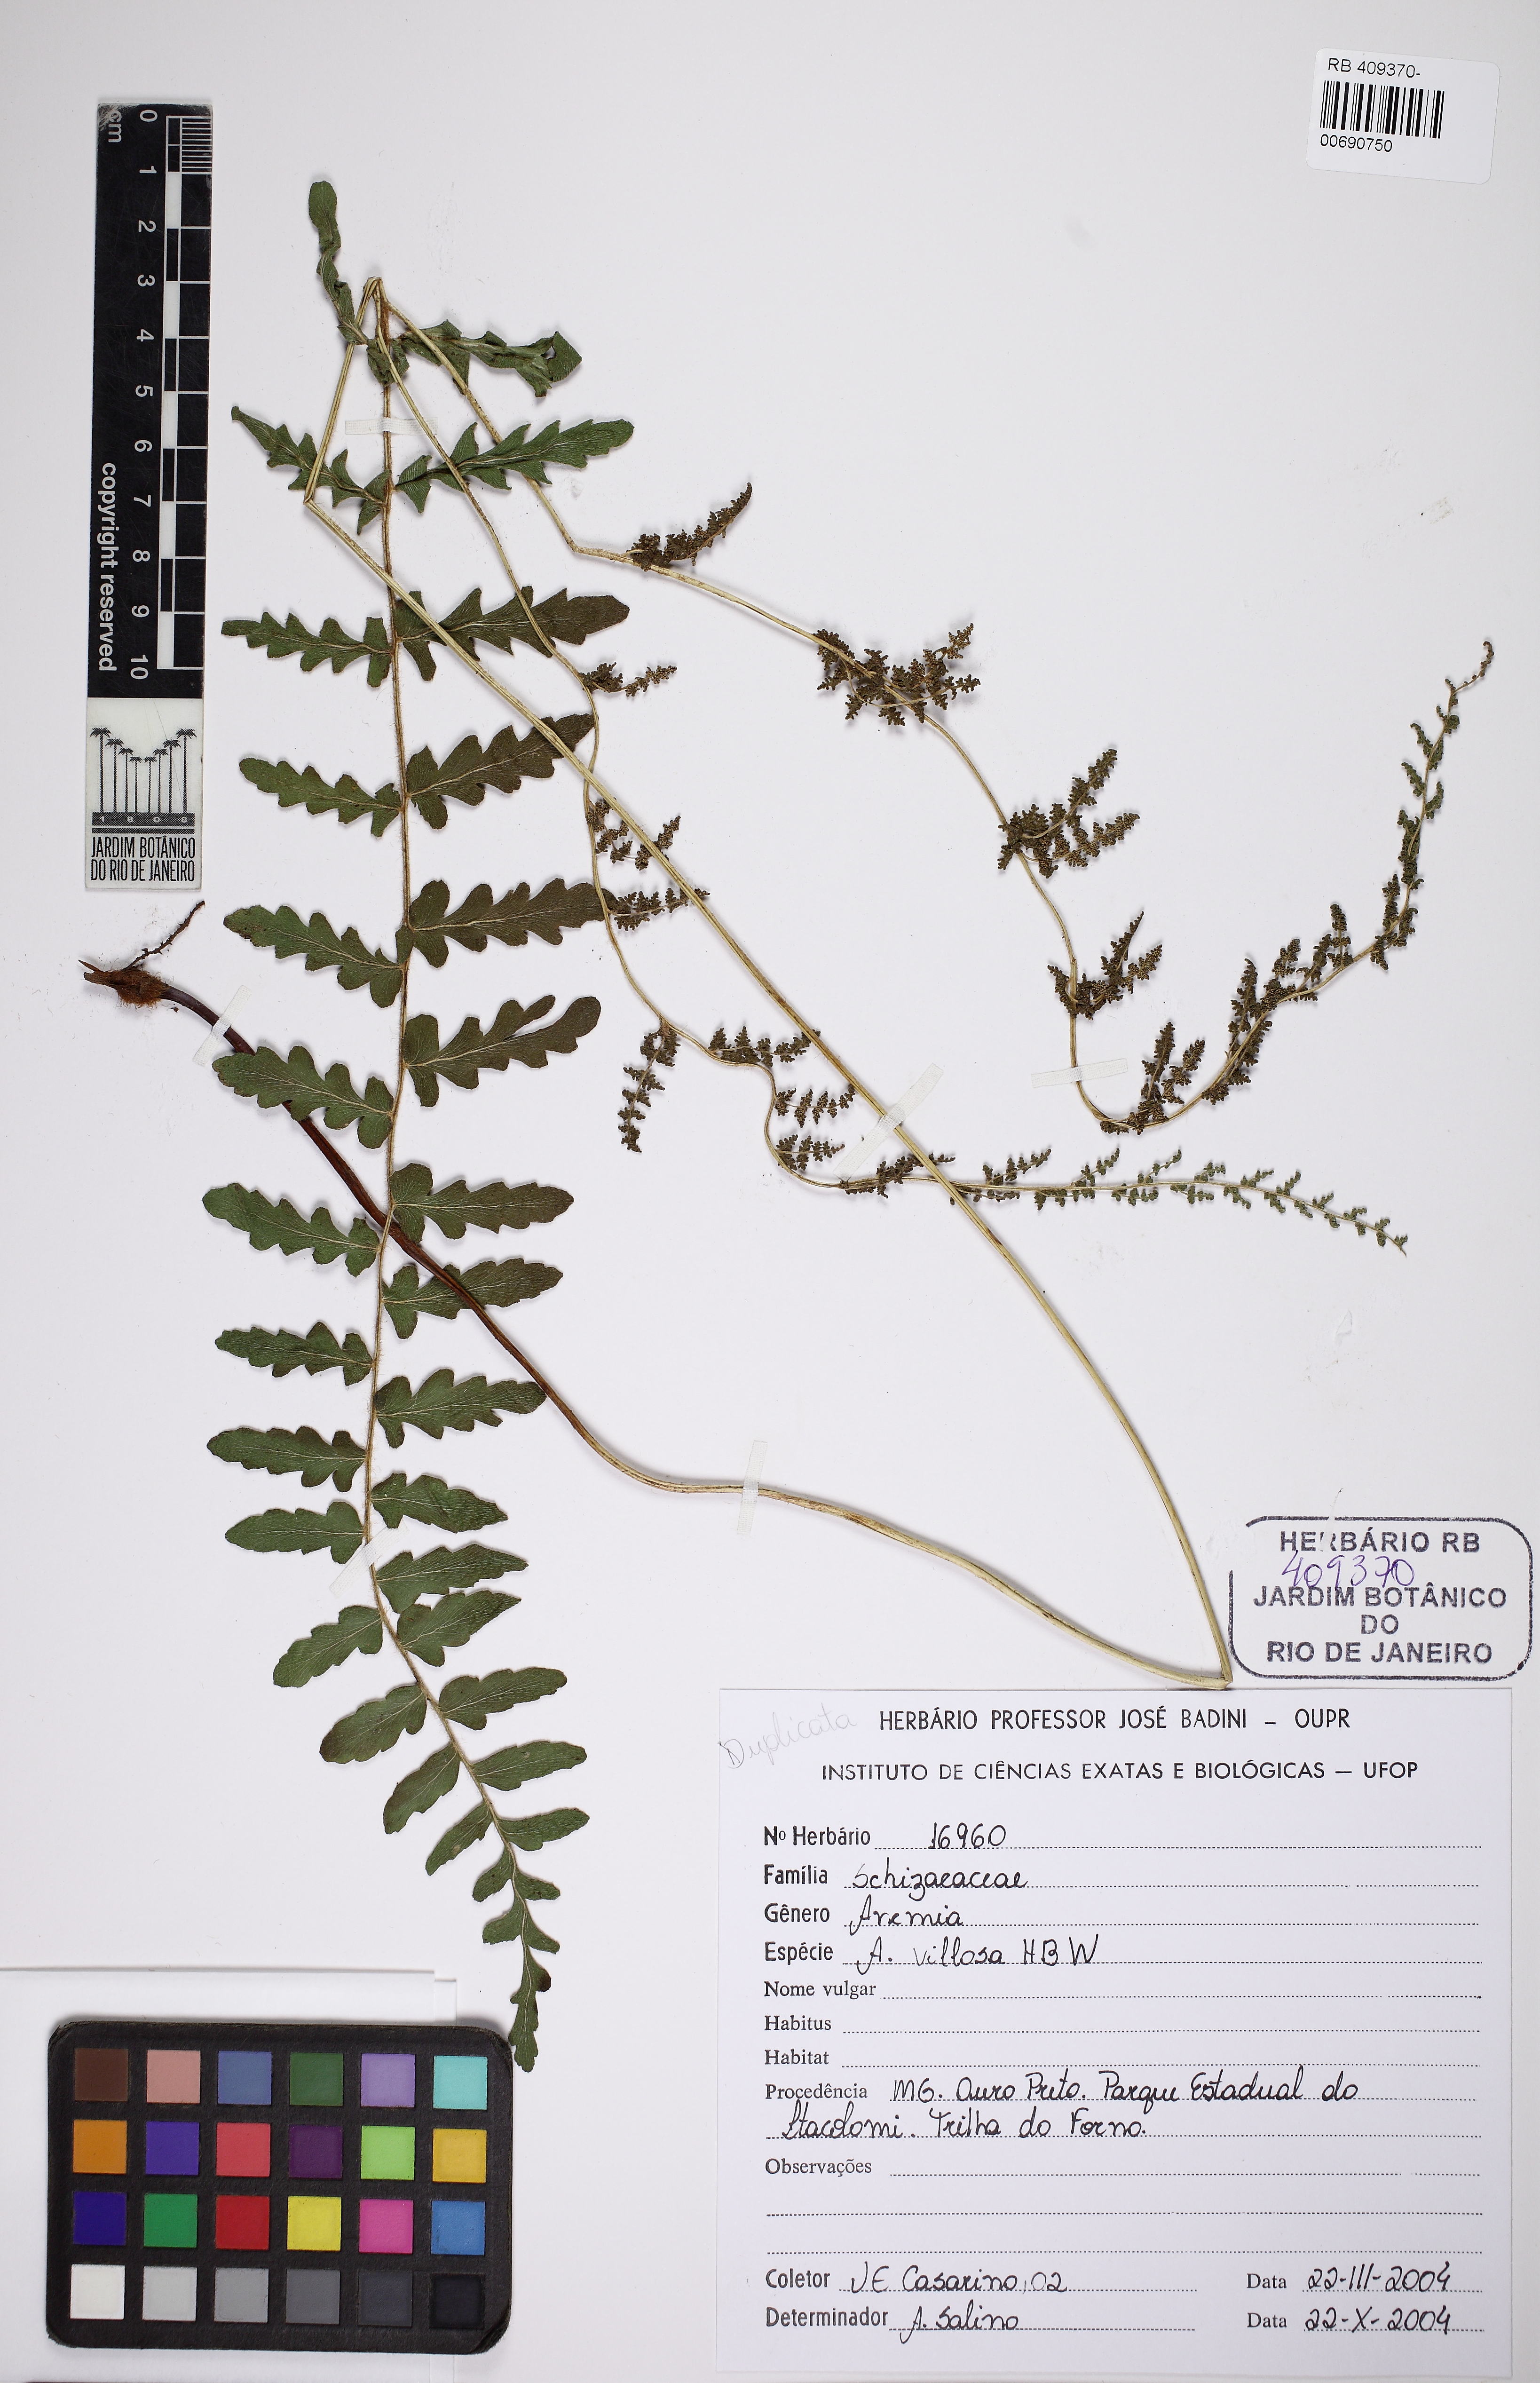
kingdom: Plantae
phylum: Tracheophyta
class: Polypodiopsida
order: Schizaeales
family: Anemiaceae
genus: Anemia
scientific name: Anemia villosa
